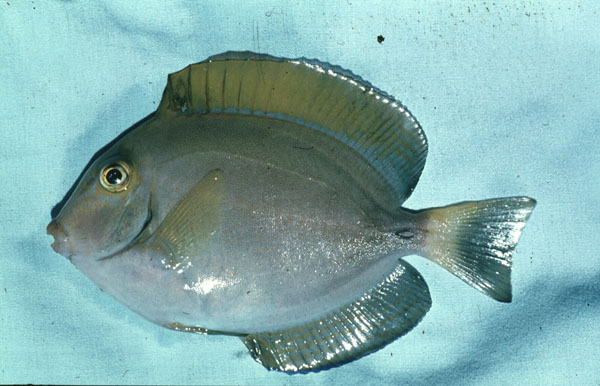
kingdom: Animalia
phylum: Chordata
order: Perciformes
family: Acanthuridae
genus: Acanthurus
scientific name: Acanthurus lineatus
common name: Striped surgeonfish
